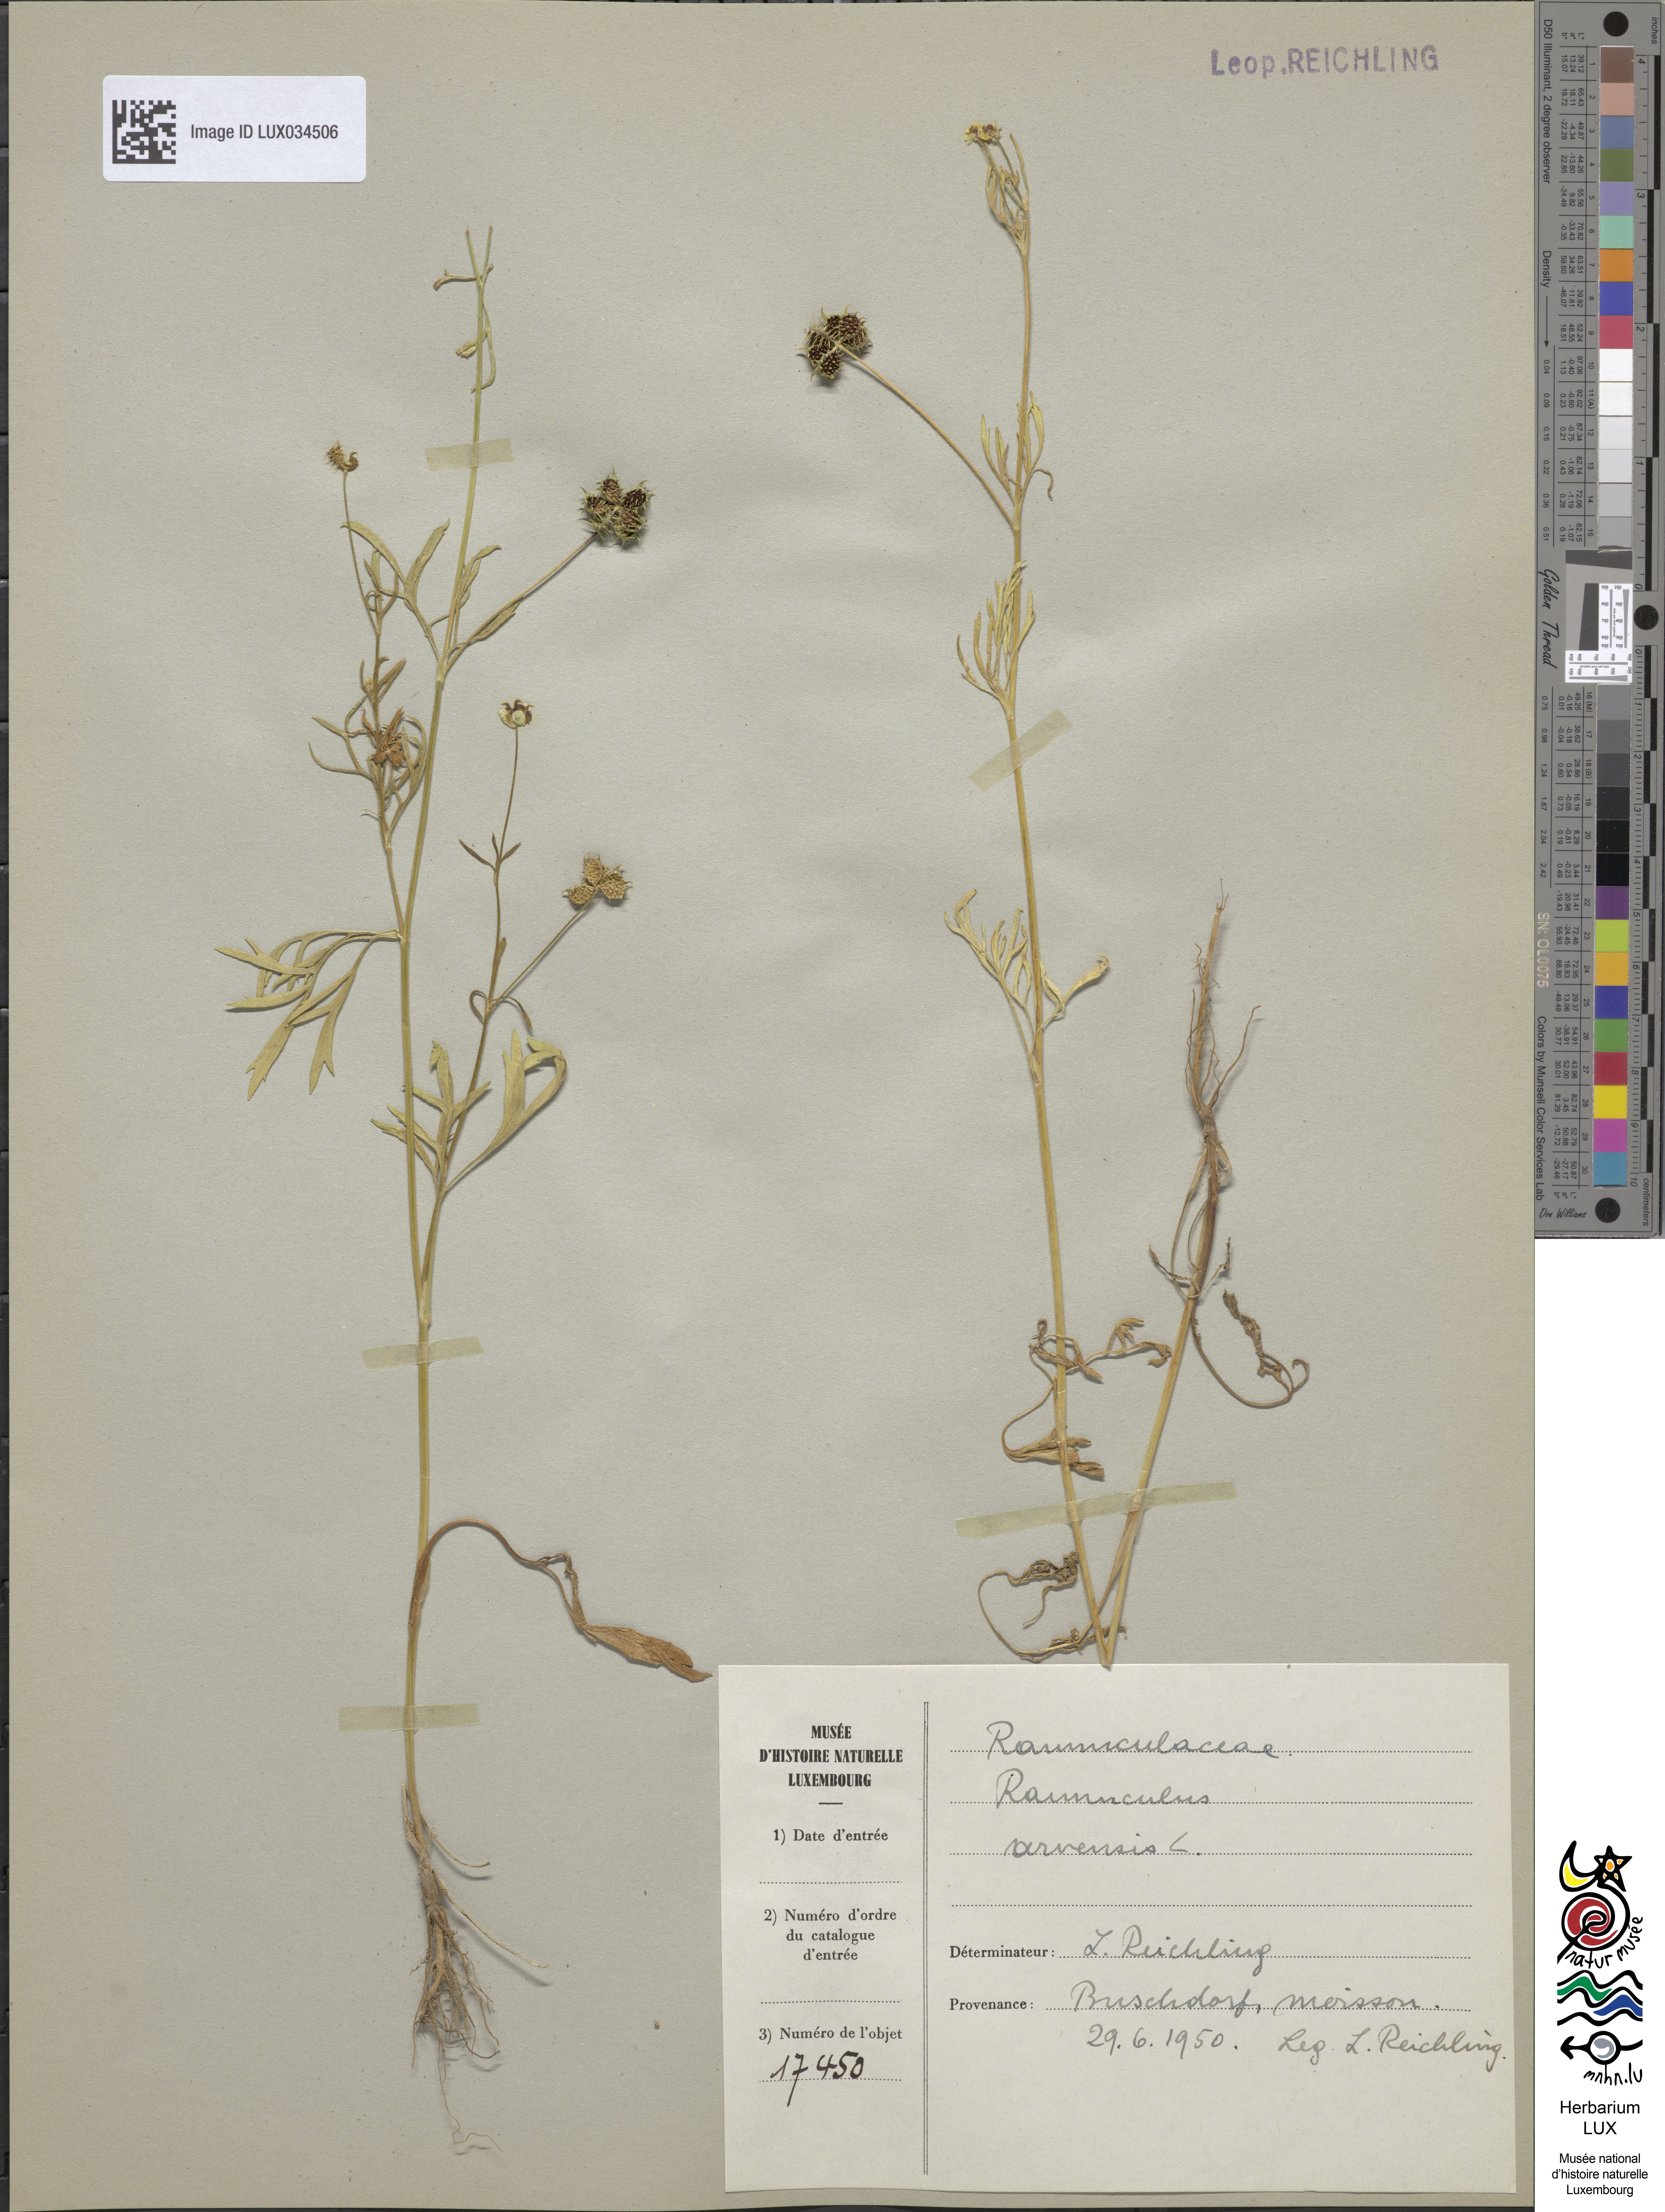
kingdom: Plantae
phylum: Tracheophyta
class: Magnoliopsida
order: Ranunculales
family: Ranunculaceae
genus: Ranunculus
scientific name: Ranunculus arvensis
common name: Corn buttercup
